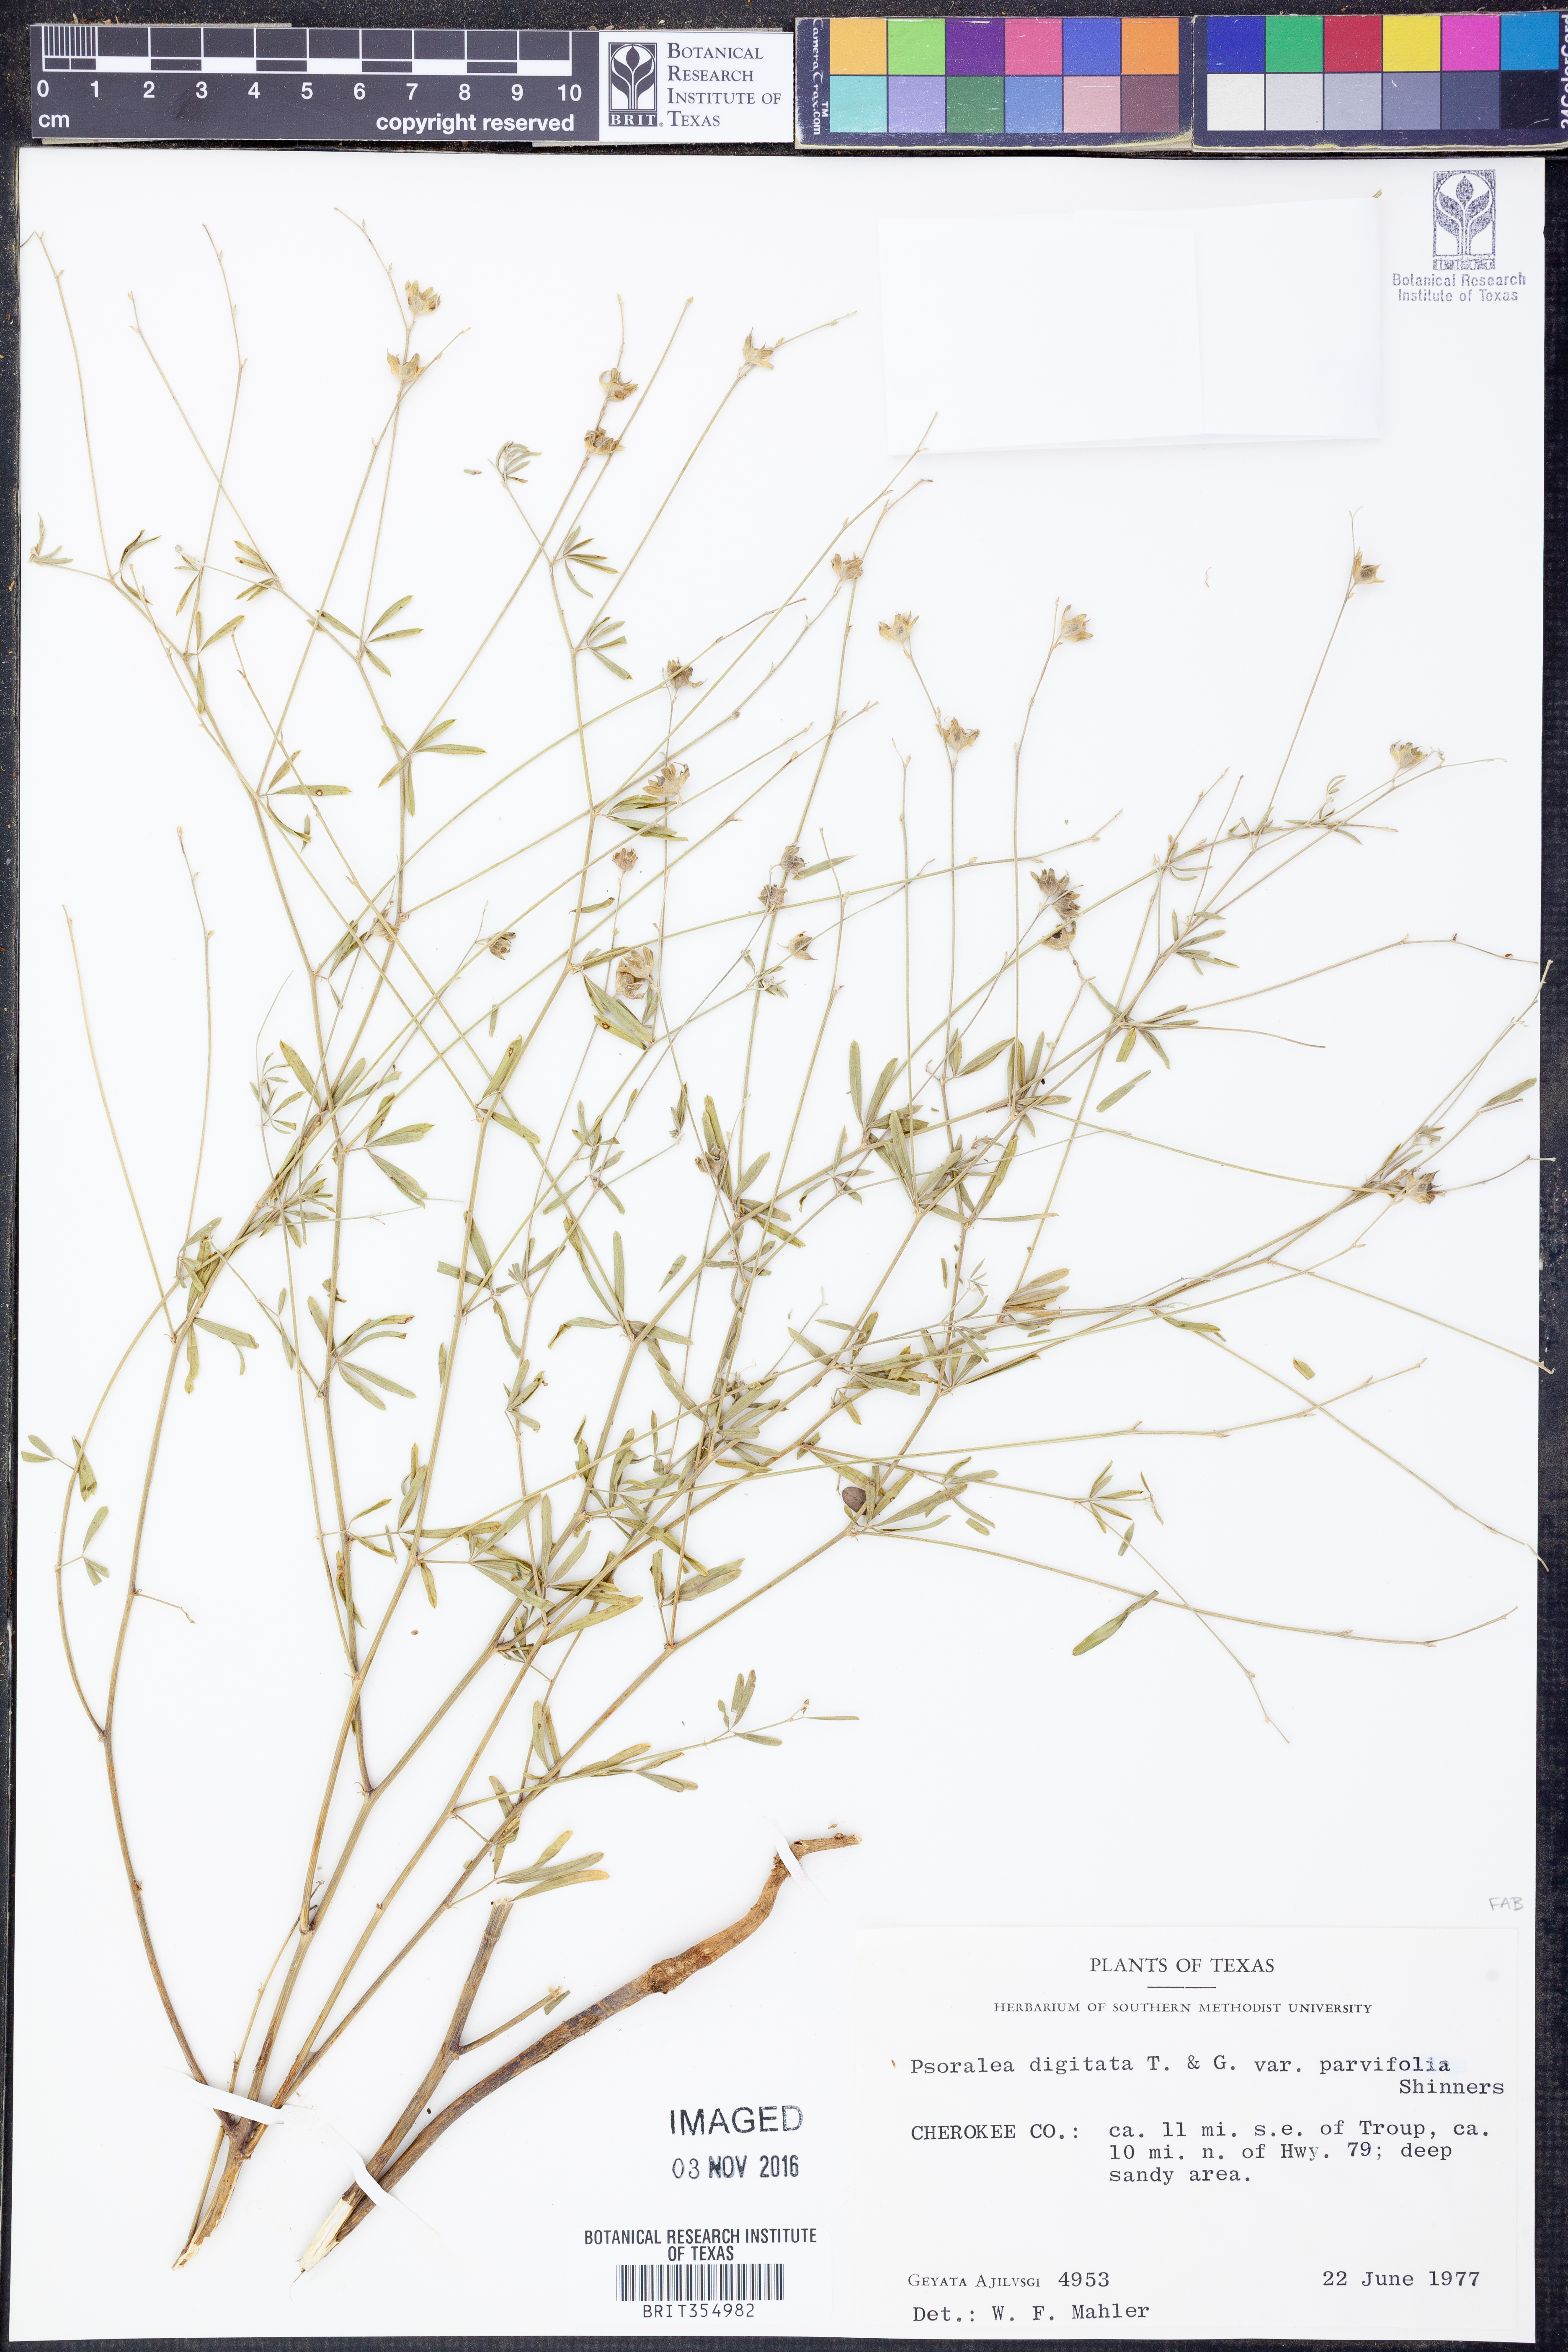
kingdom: Plantae
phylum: Tracheophyta
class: Magnoliopsida
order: Fabales
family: Fabaceae
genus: Pediomelum
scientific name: Pediomelum digitatum
